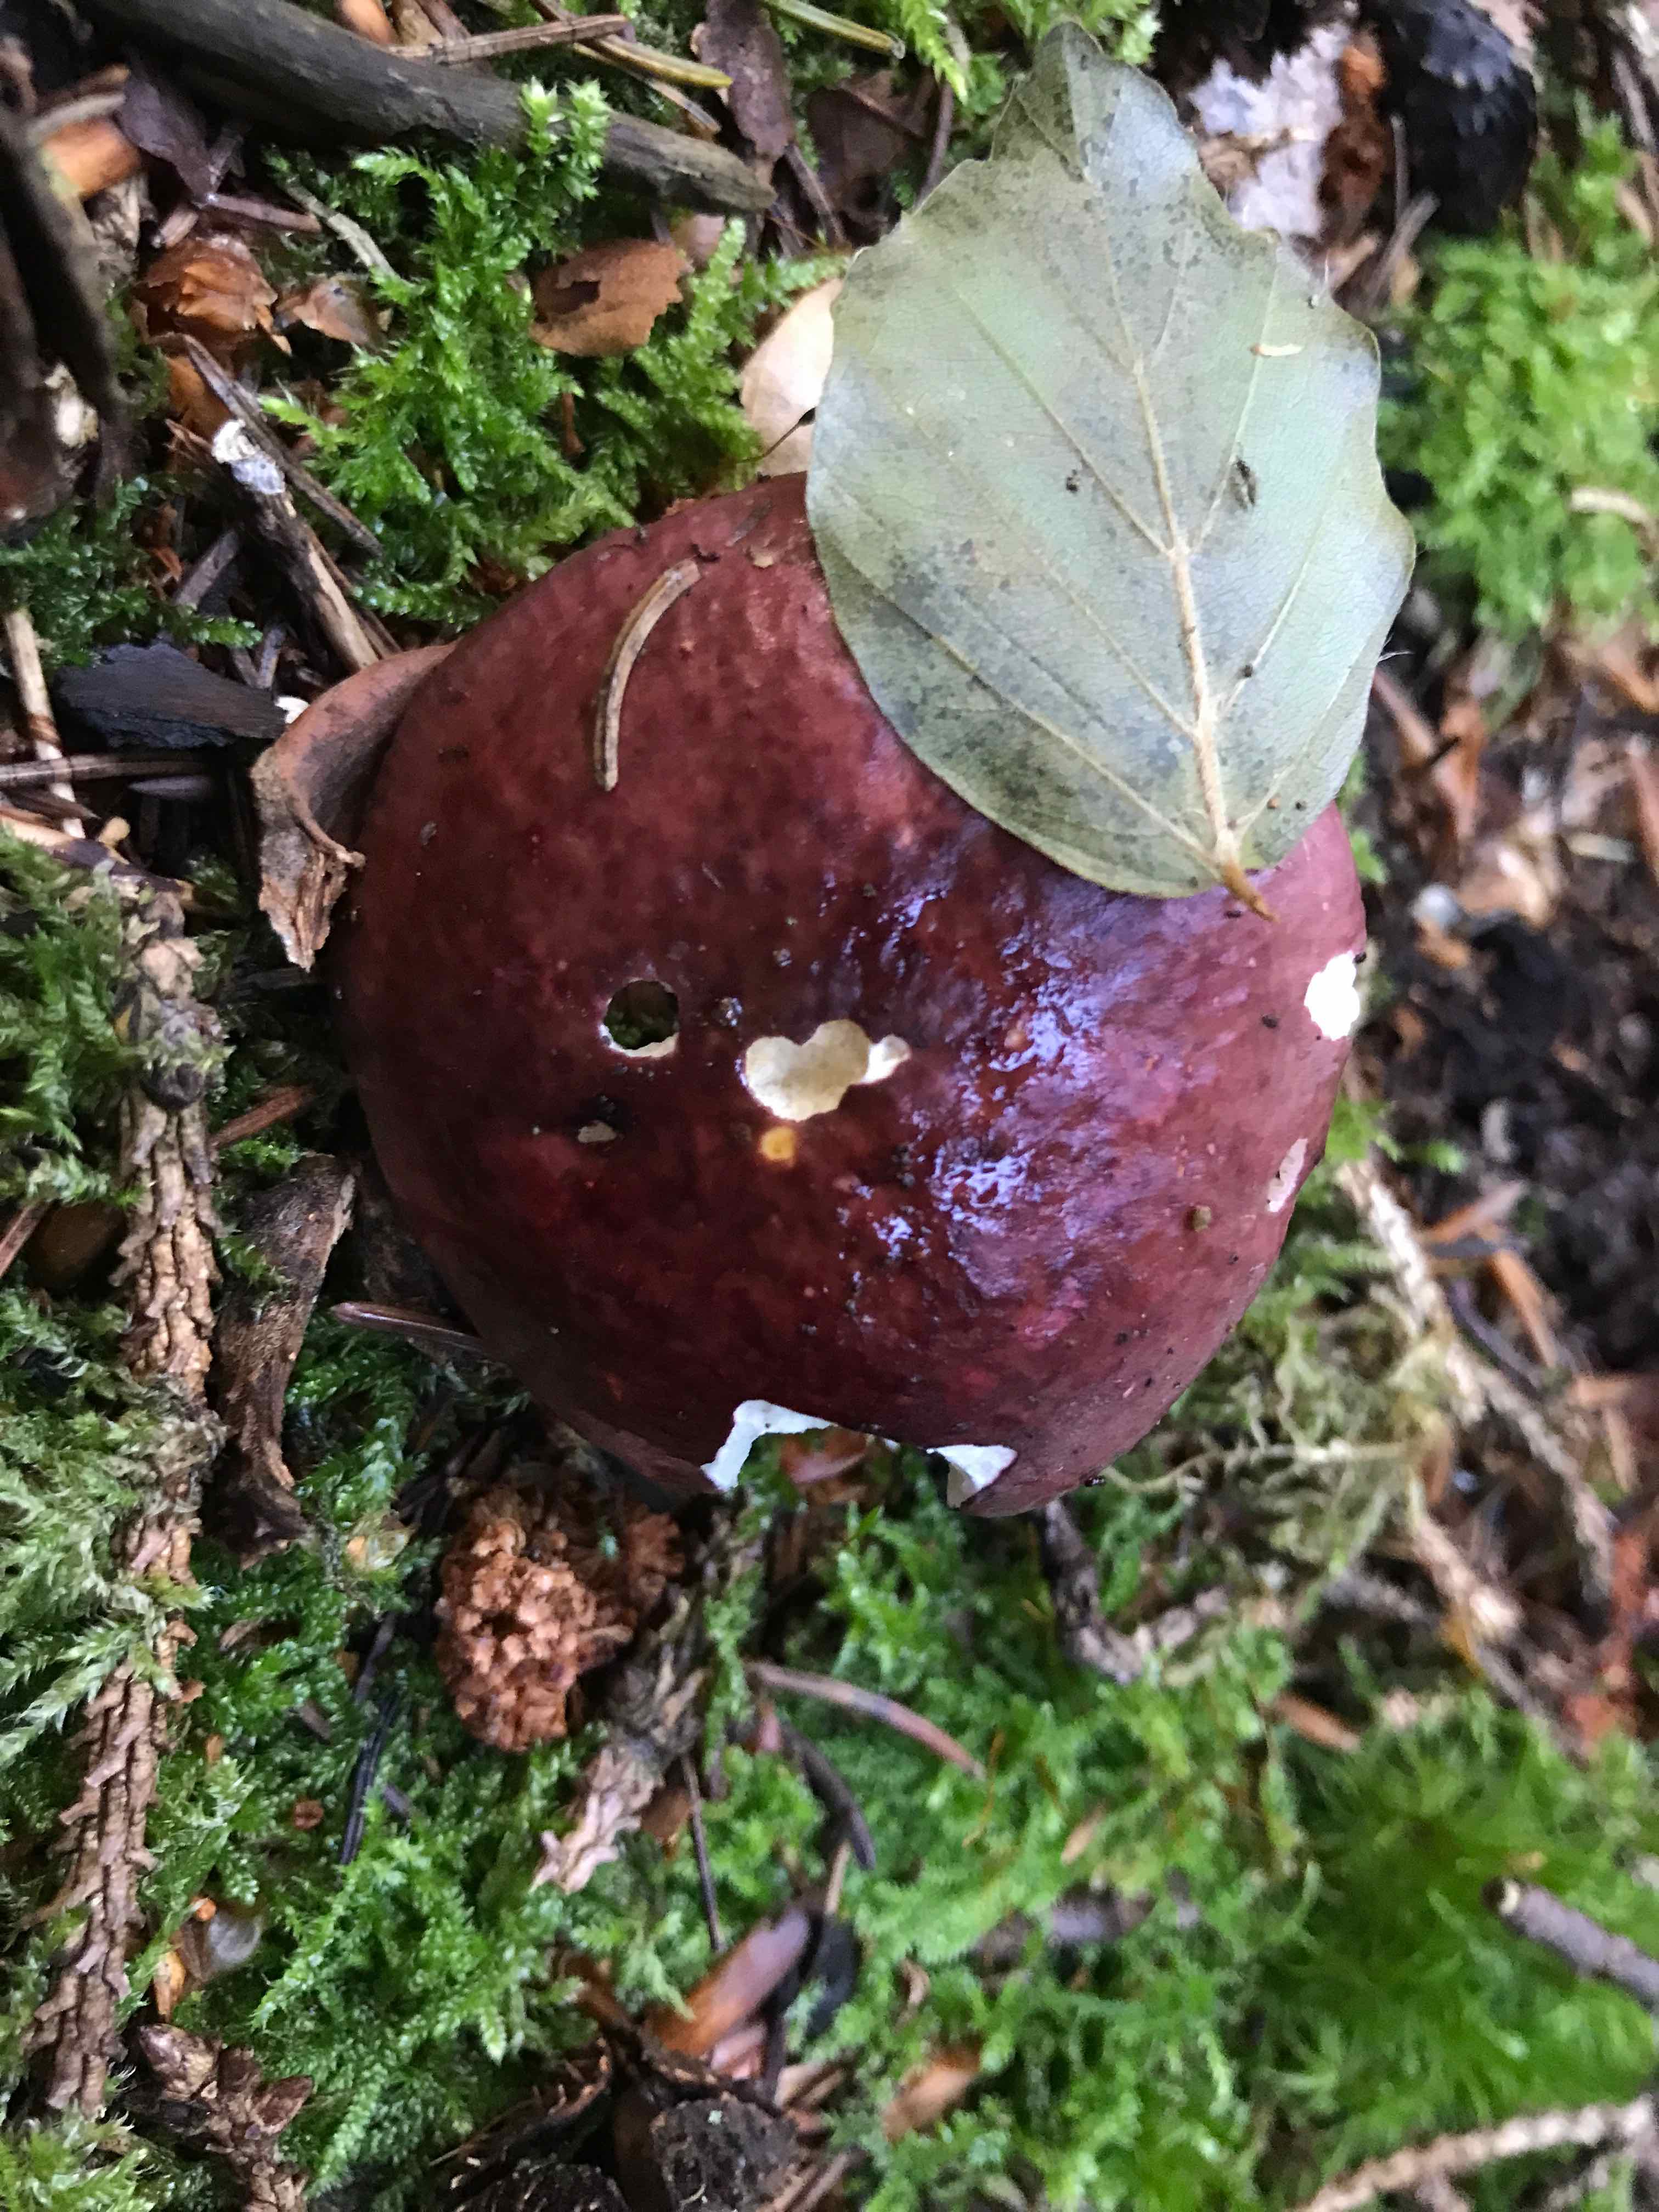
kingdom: Fungi
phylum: Basidiomycota
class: Agaricomycetes
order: Russulales
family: Russulaceae
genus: Russula
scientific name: Russula
